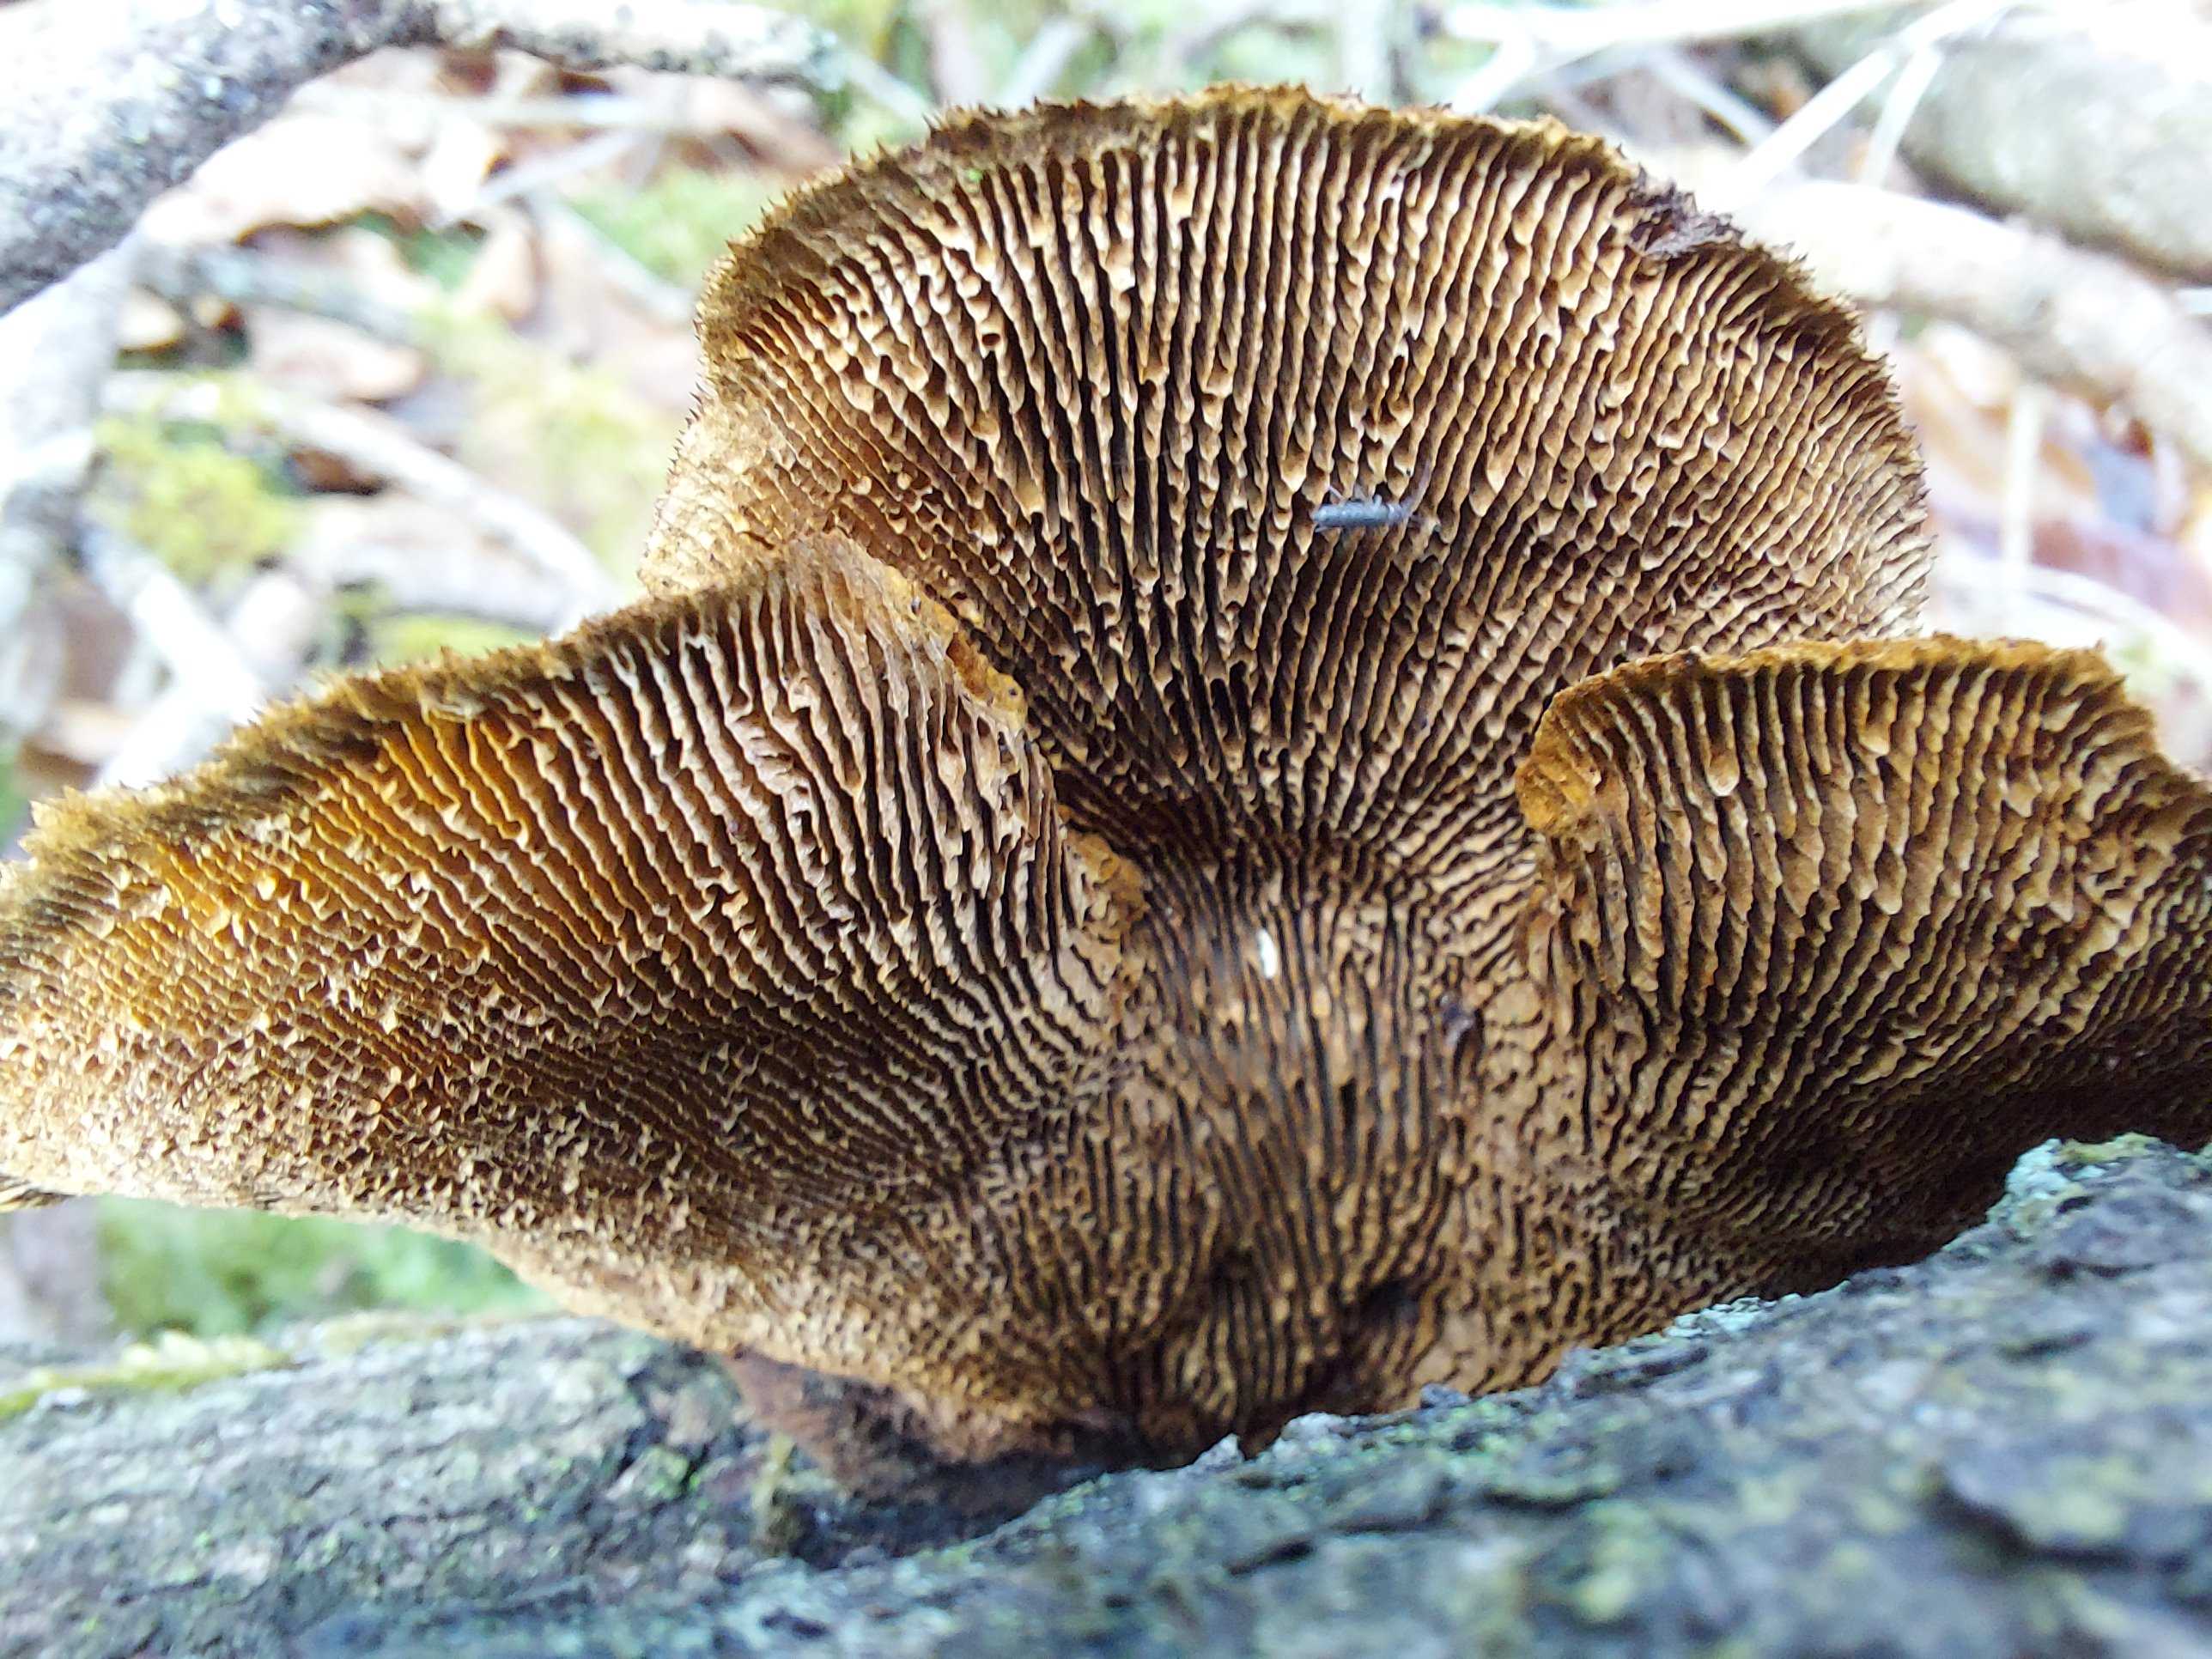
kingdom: Fungi
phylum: Basidiomycota
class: Agaricomycetes
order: Gloeophyllales
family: Gloeophyllaceae
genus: Gloeophyllum
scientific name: Gloeophyllum sepiarium
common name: fyrre-korkhat
